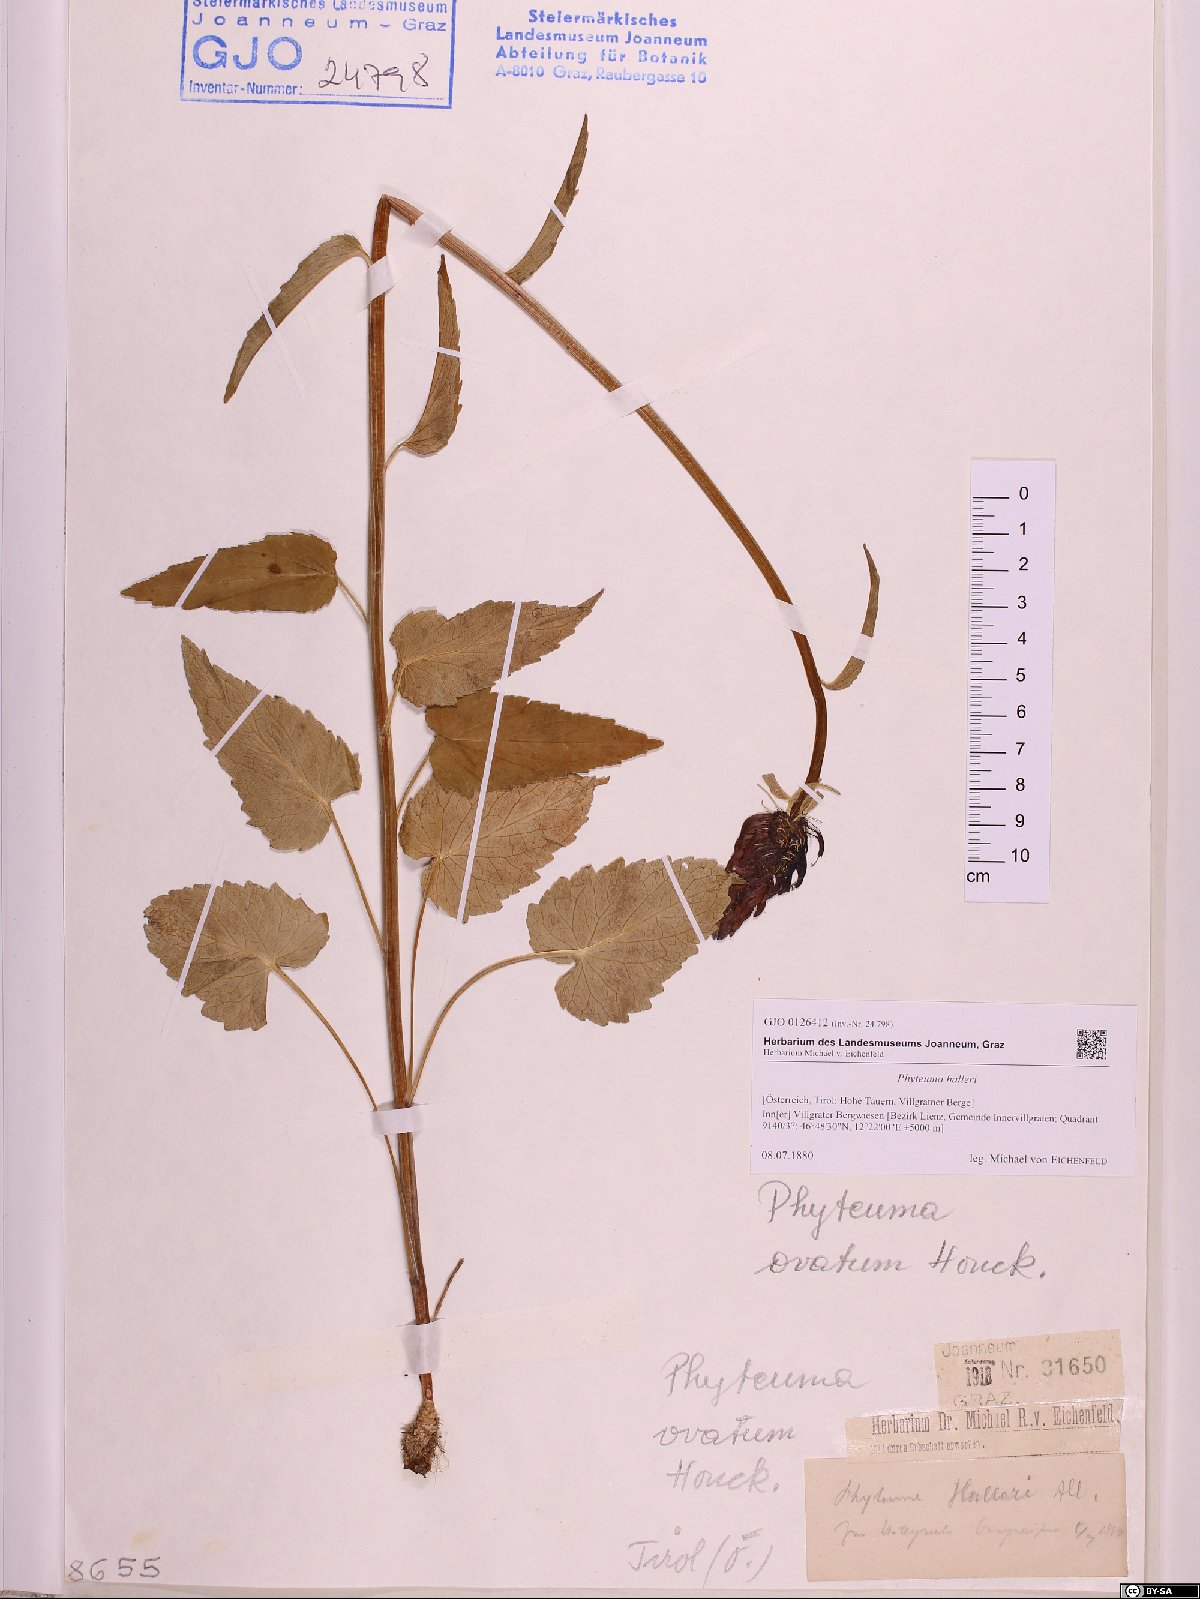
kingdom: Plantae
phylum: Tracheophyta
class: Magnoliopsida
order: Asterales
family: Campanulaceae
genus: Phyteuma
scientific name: Phyteuma ovatum
